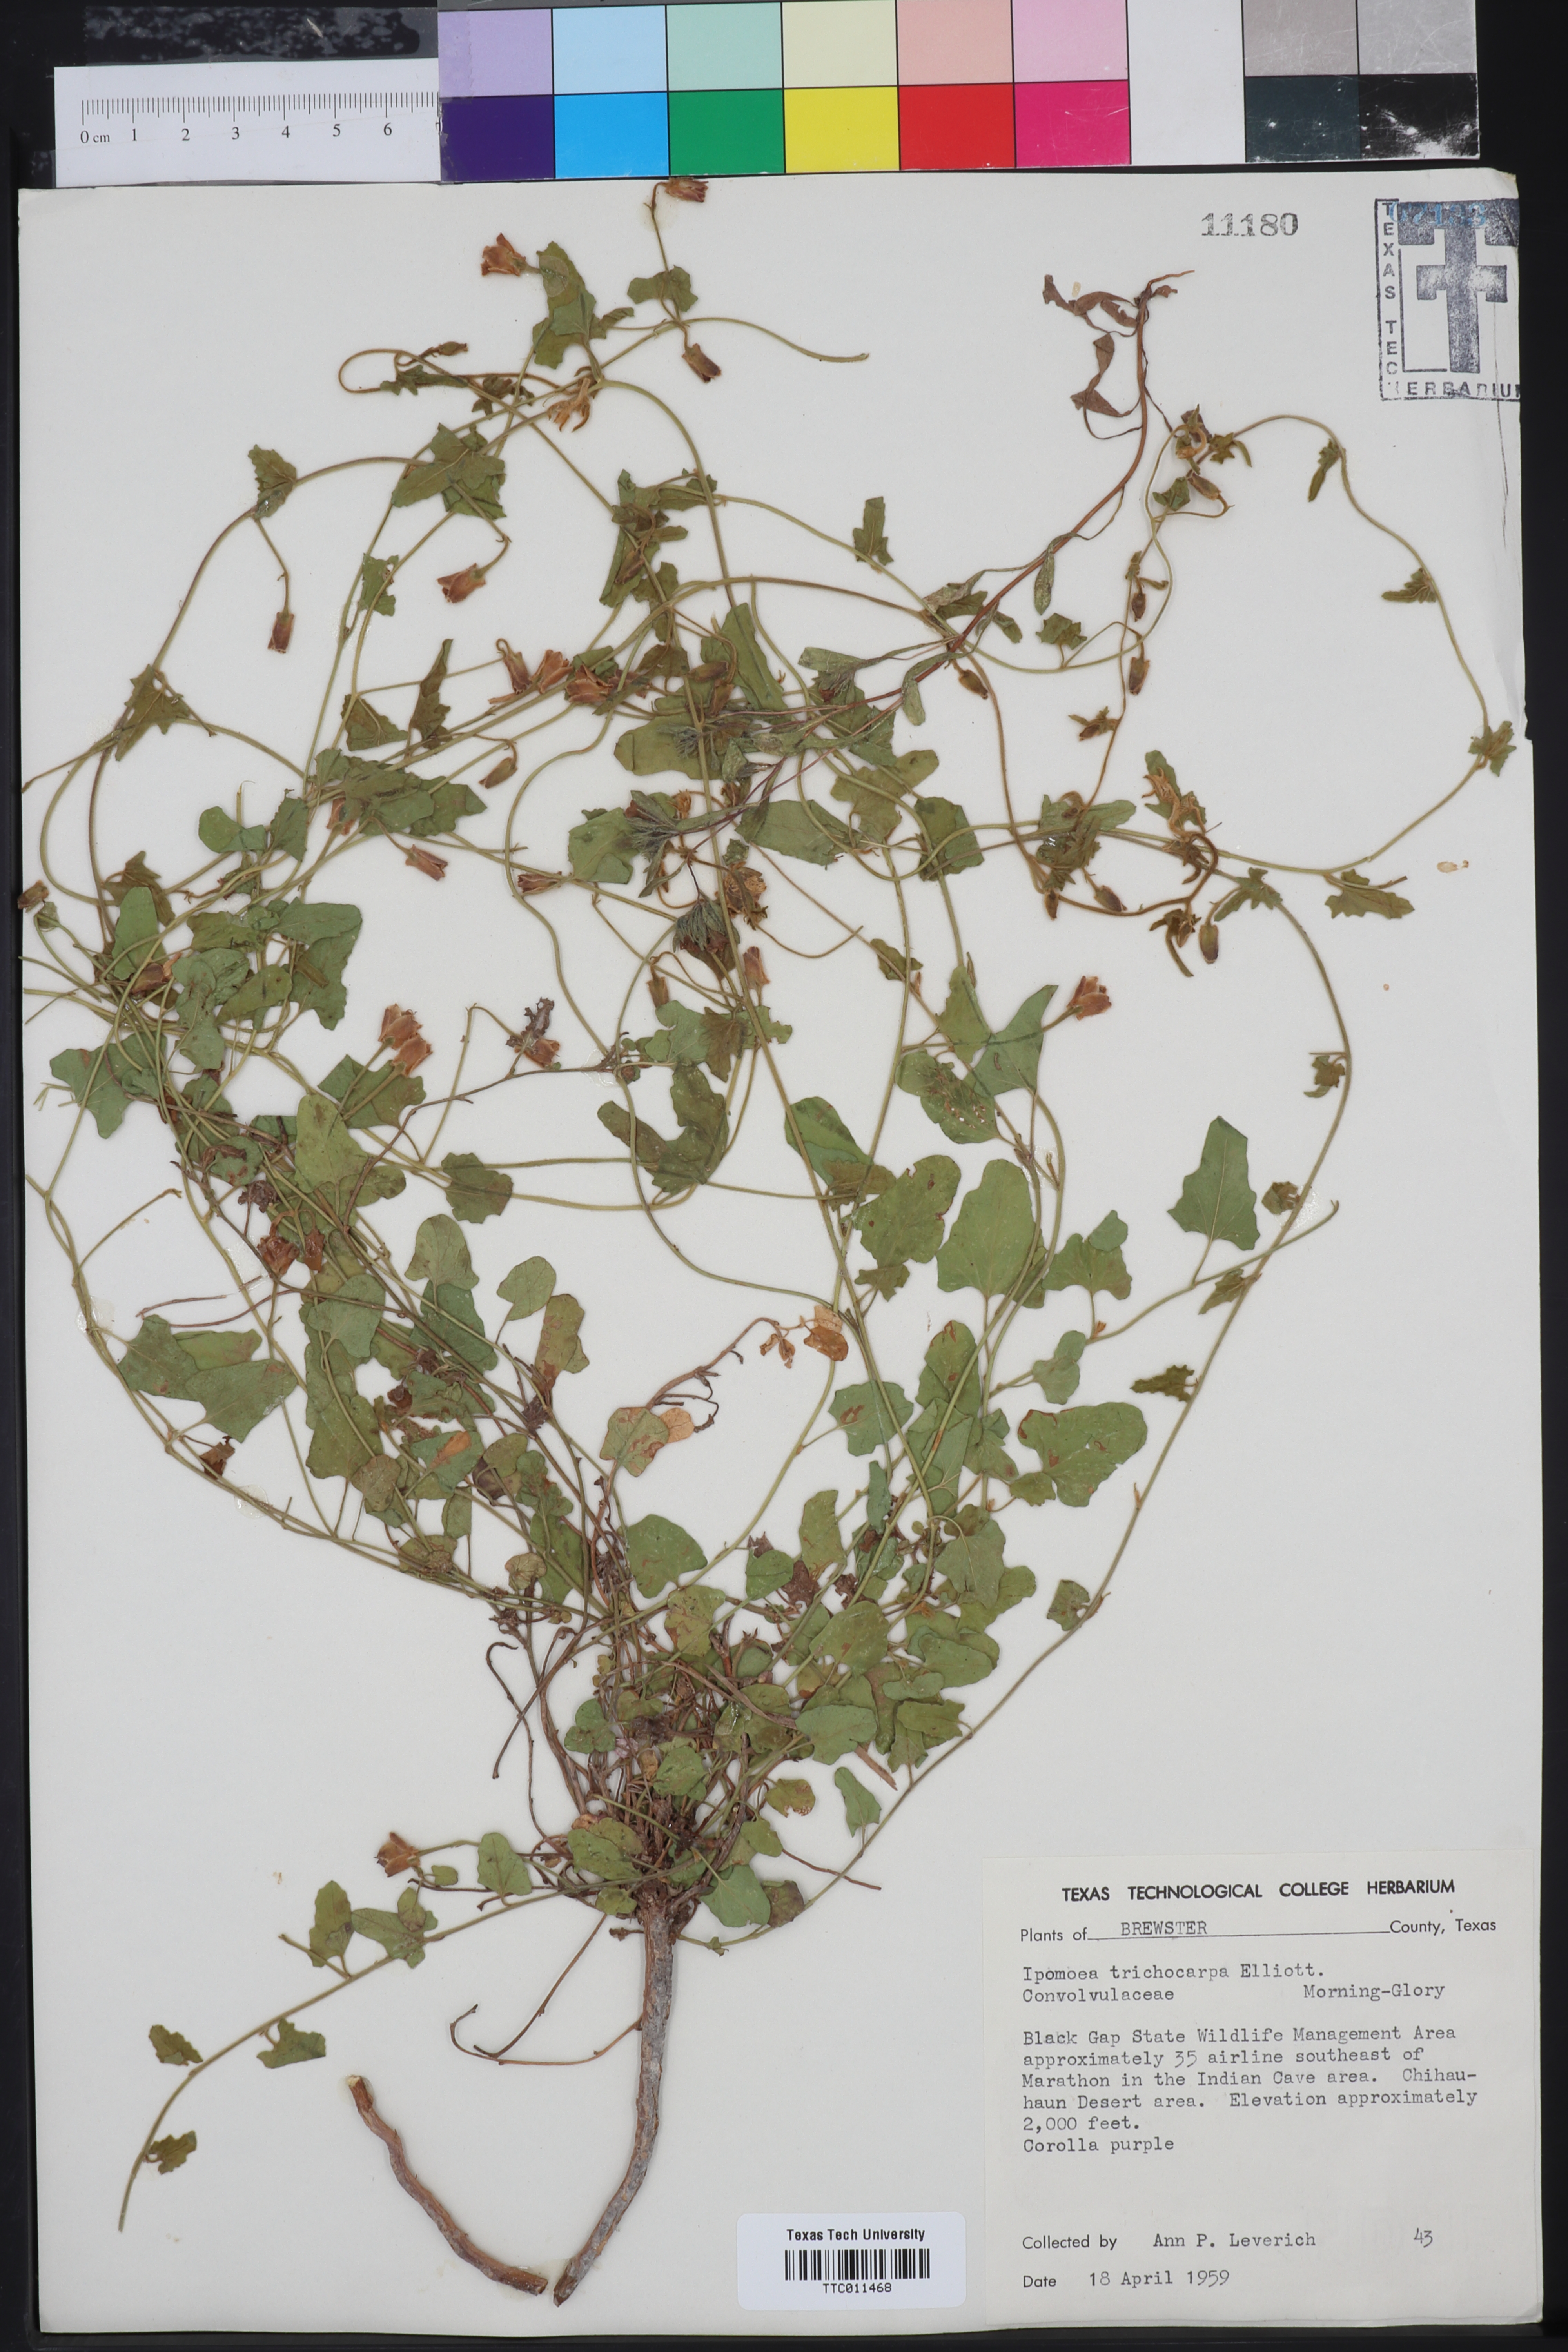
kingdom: Plantae
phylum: Tracheophyta
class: Magnoliopsida
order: Solanales
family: Convolvulaceae
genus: Ipomoea
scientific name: Ipomoea cordatotriloba
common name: Cotton morning glory
